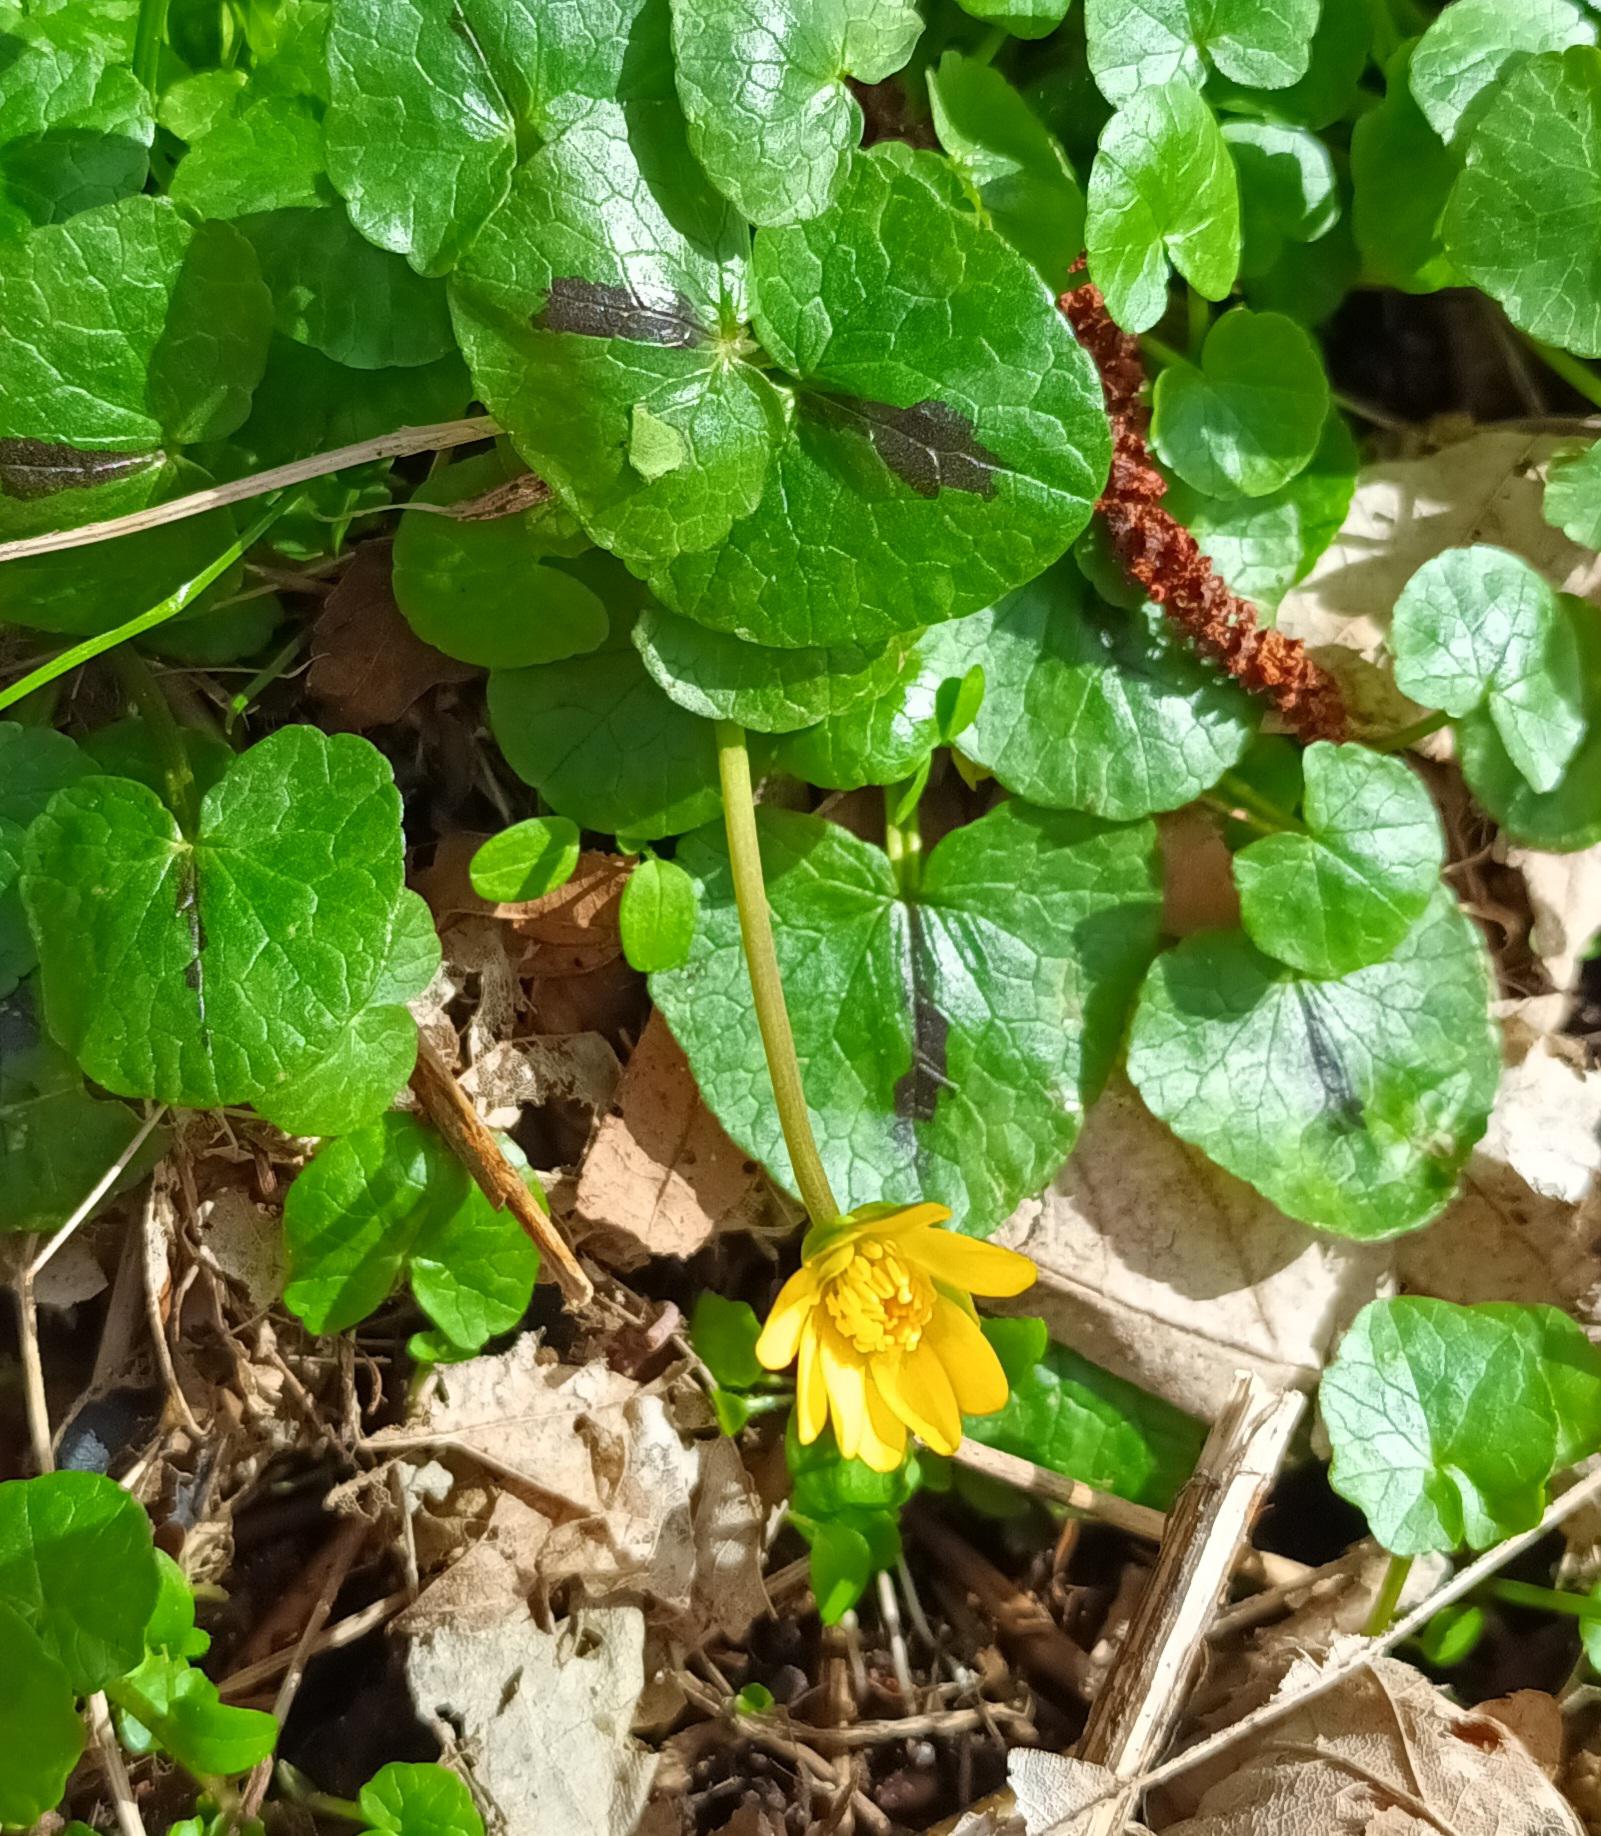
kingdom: Plantae
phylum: Tracheophyta
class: Magnoliopsida
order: Ranunculales
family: Ranunculaceae
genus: Ficaria
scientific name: Ficaria verna
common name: Vorterod
